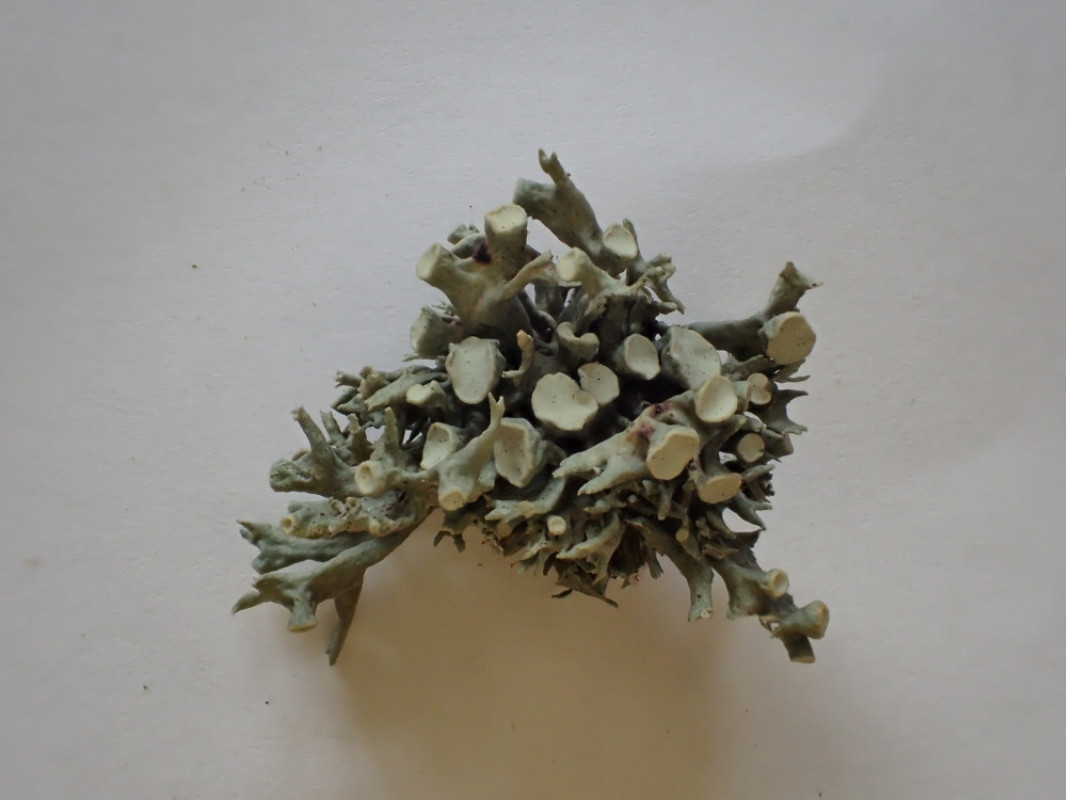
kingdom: Fungi
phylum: Ascomycota
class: Lecanoromycetes
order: Lecanorales
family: Ramalinaceae
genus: Ramalina
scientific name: Ramalina fastigiata
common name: tue-grenlav
